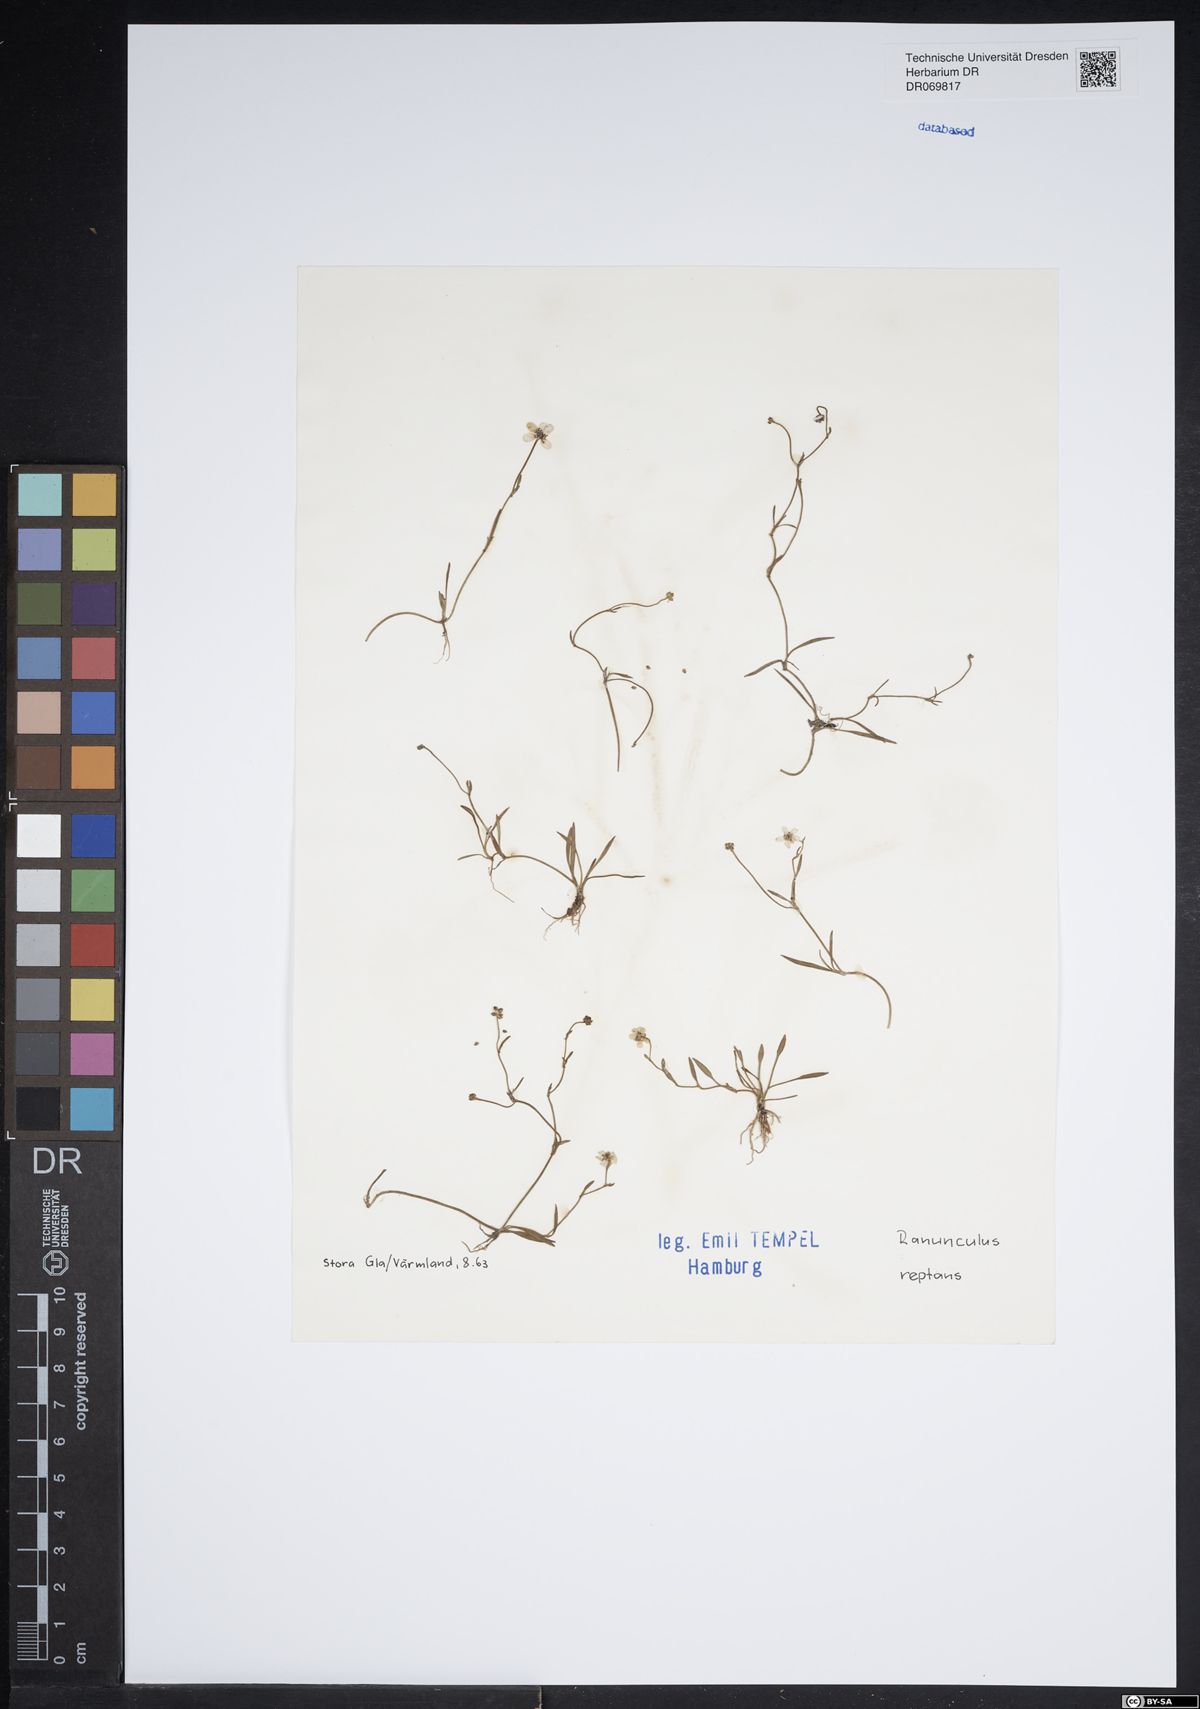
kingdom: Plantae
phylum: Tracheophyta
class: Magnoliopsida
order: Ranunculales
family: Ranunculaceae
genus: Ranunculus
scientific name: Ranunculus reptans
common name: Creeping spearwort
